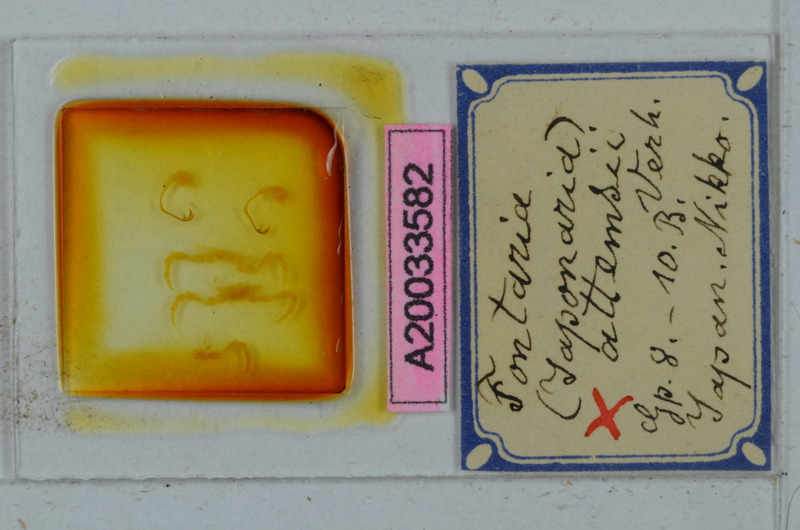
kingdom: Animalia
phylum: Arthropoda
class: Diplopoda
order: Polydesmida
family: Xystodesmidae
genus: Parafontaria
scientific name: Parafontaria doenitzi
